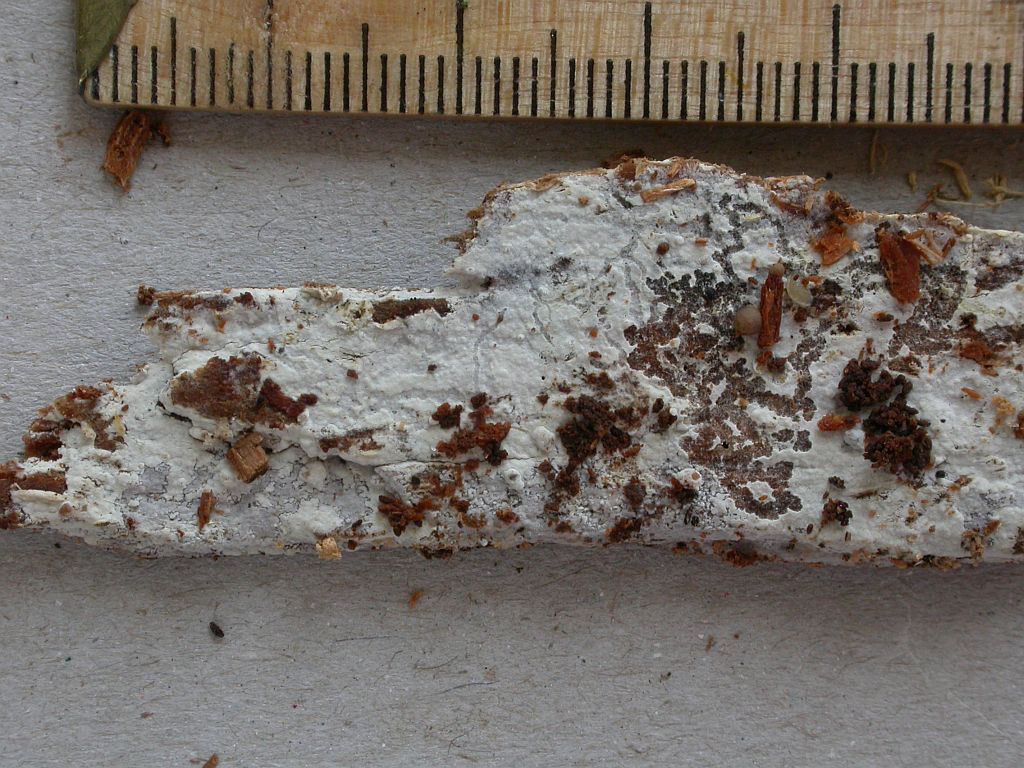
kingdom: Fungi
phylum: Basidiomycota
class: Agaricomycetes
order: Cantharellales
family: Botryobasidiaceae
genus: Botryobasidium
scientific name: Botryobasidium subcoronatum
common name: almindelig spindhinde
